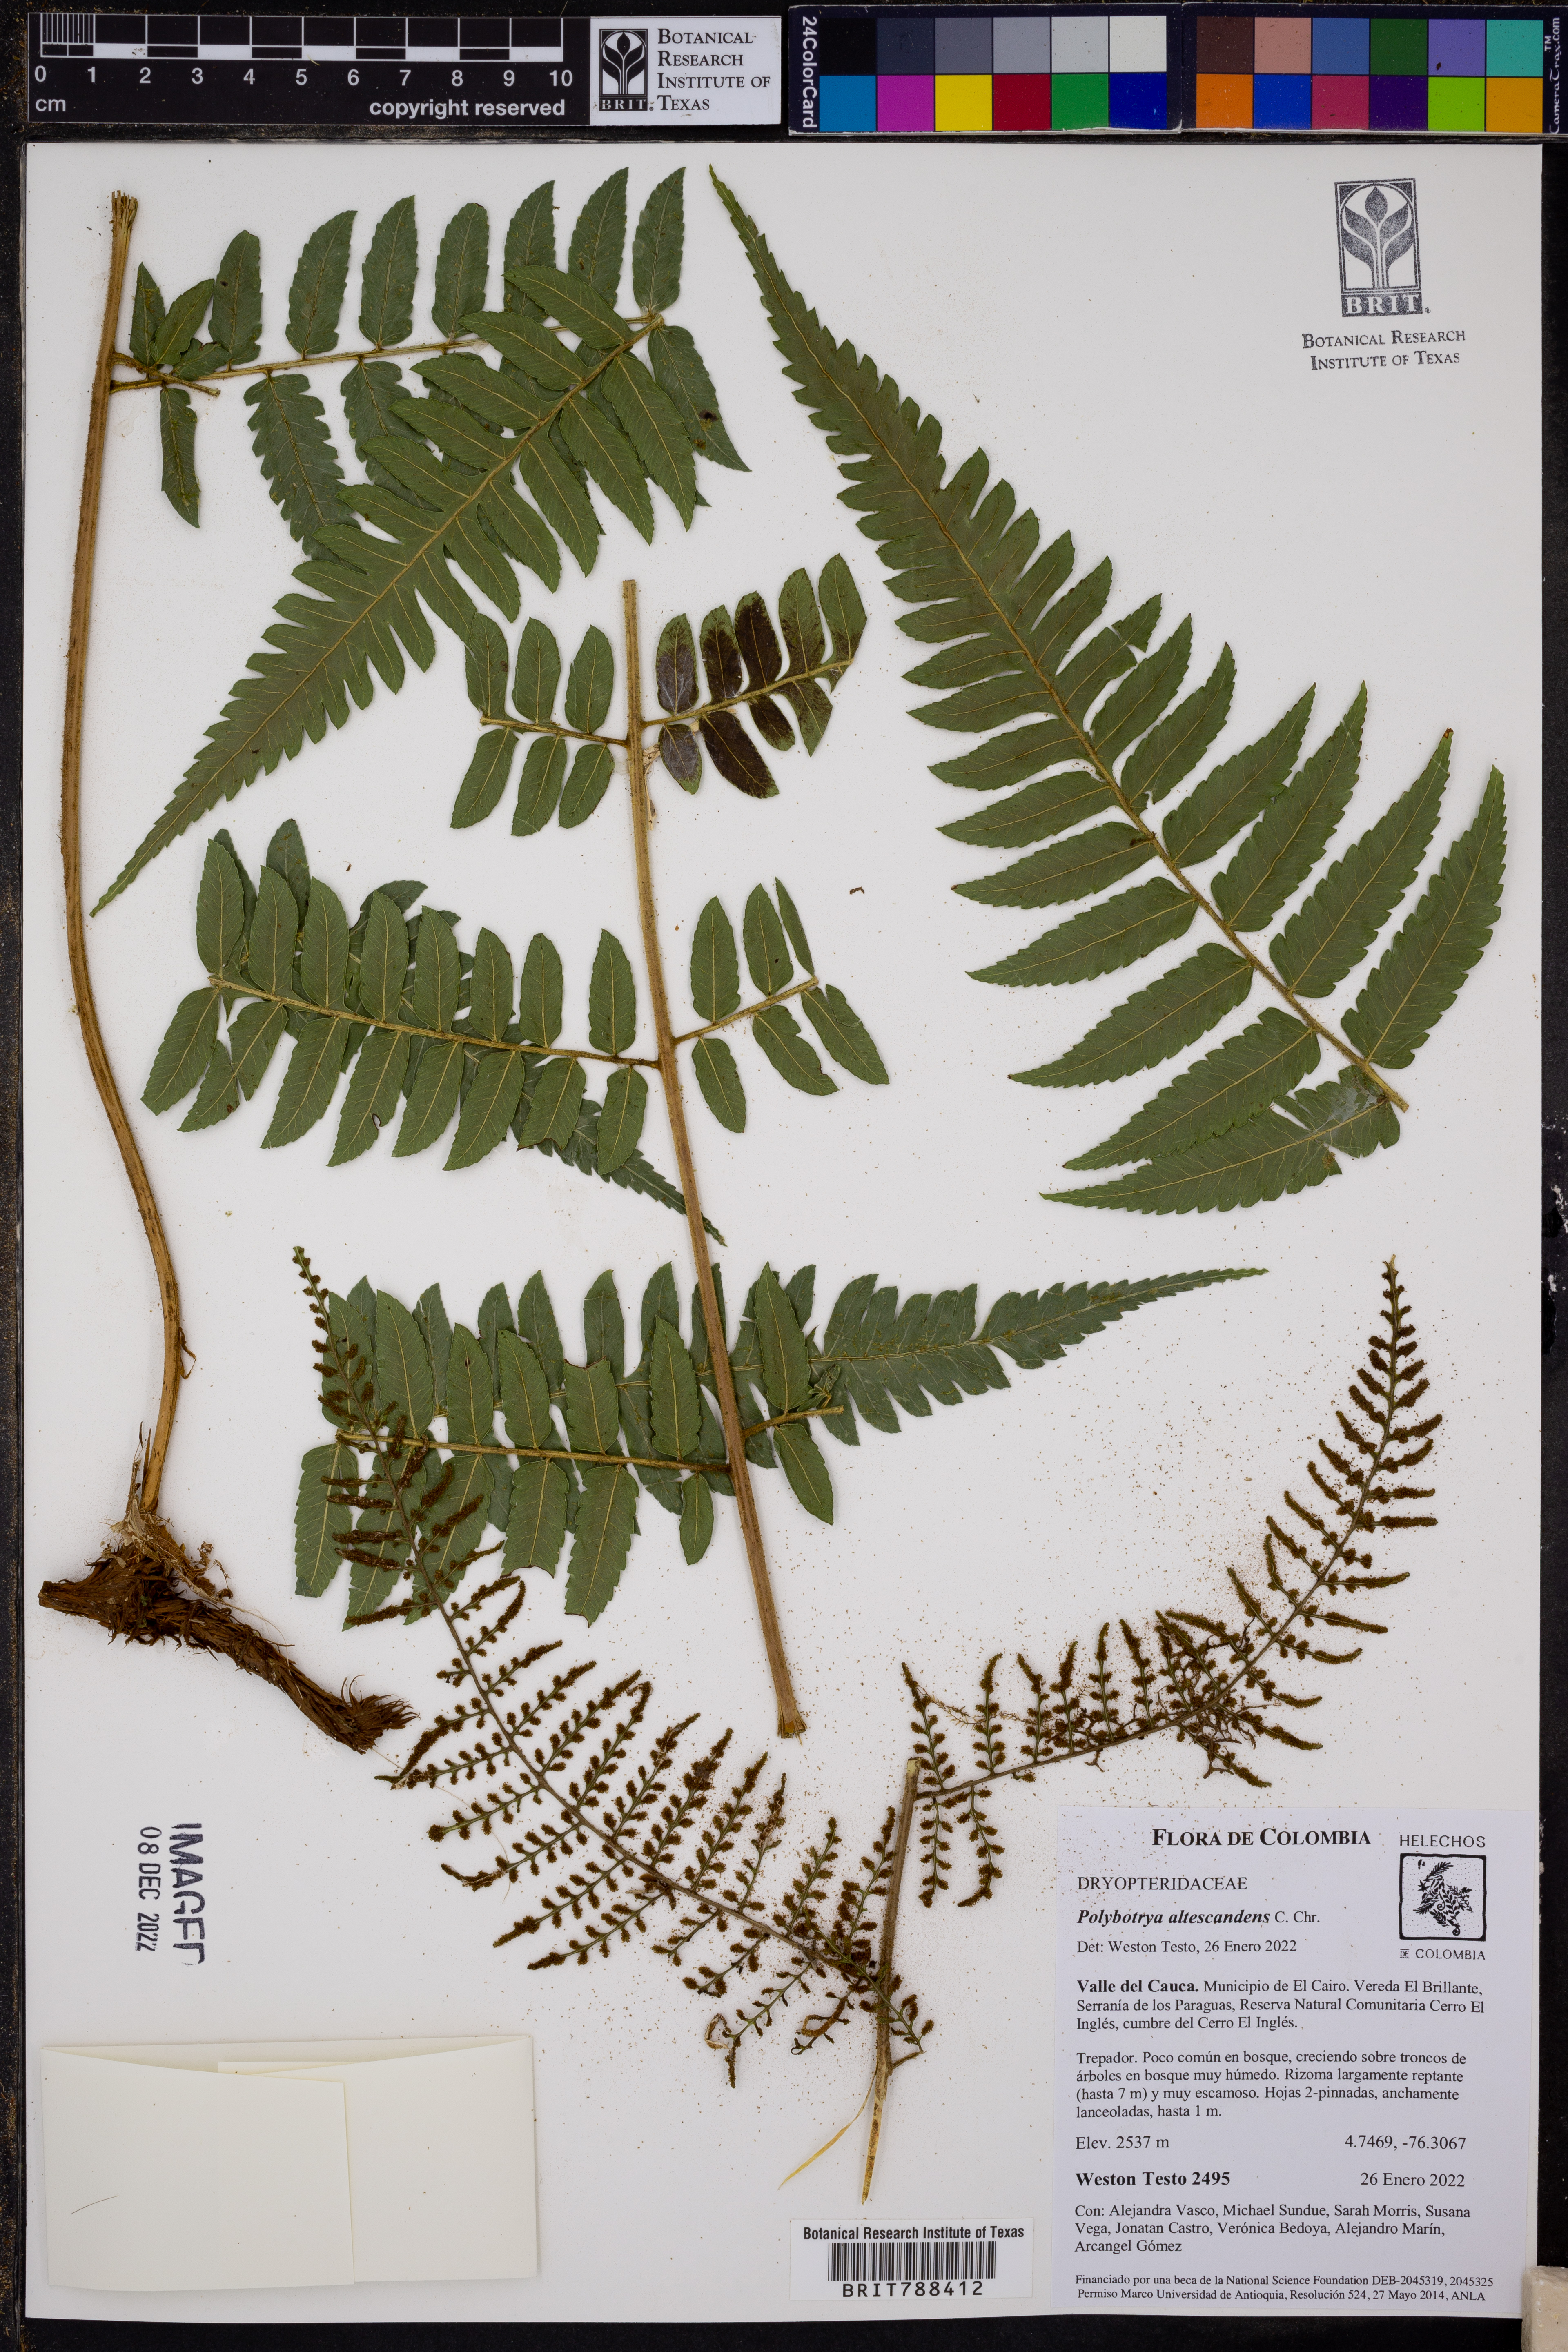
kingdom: Plantae
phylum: Tracheophyta
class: Polypodiopsida
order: Polypodiales
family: Dryopteridaceae
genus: Polybotrya
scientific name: Polybotrya altescandens
